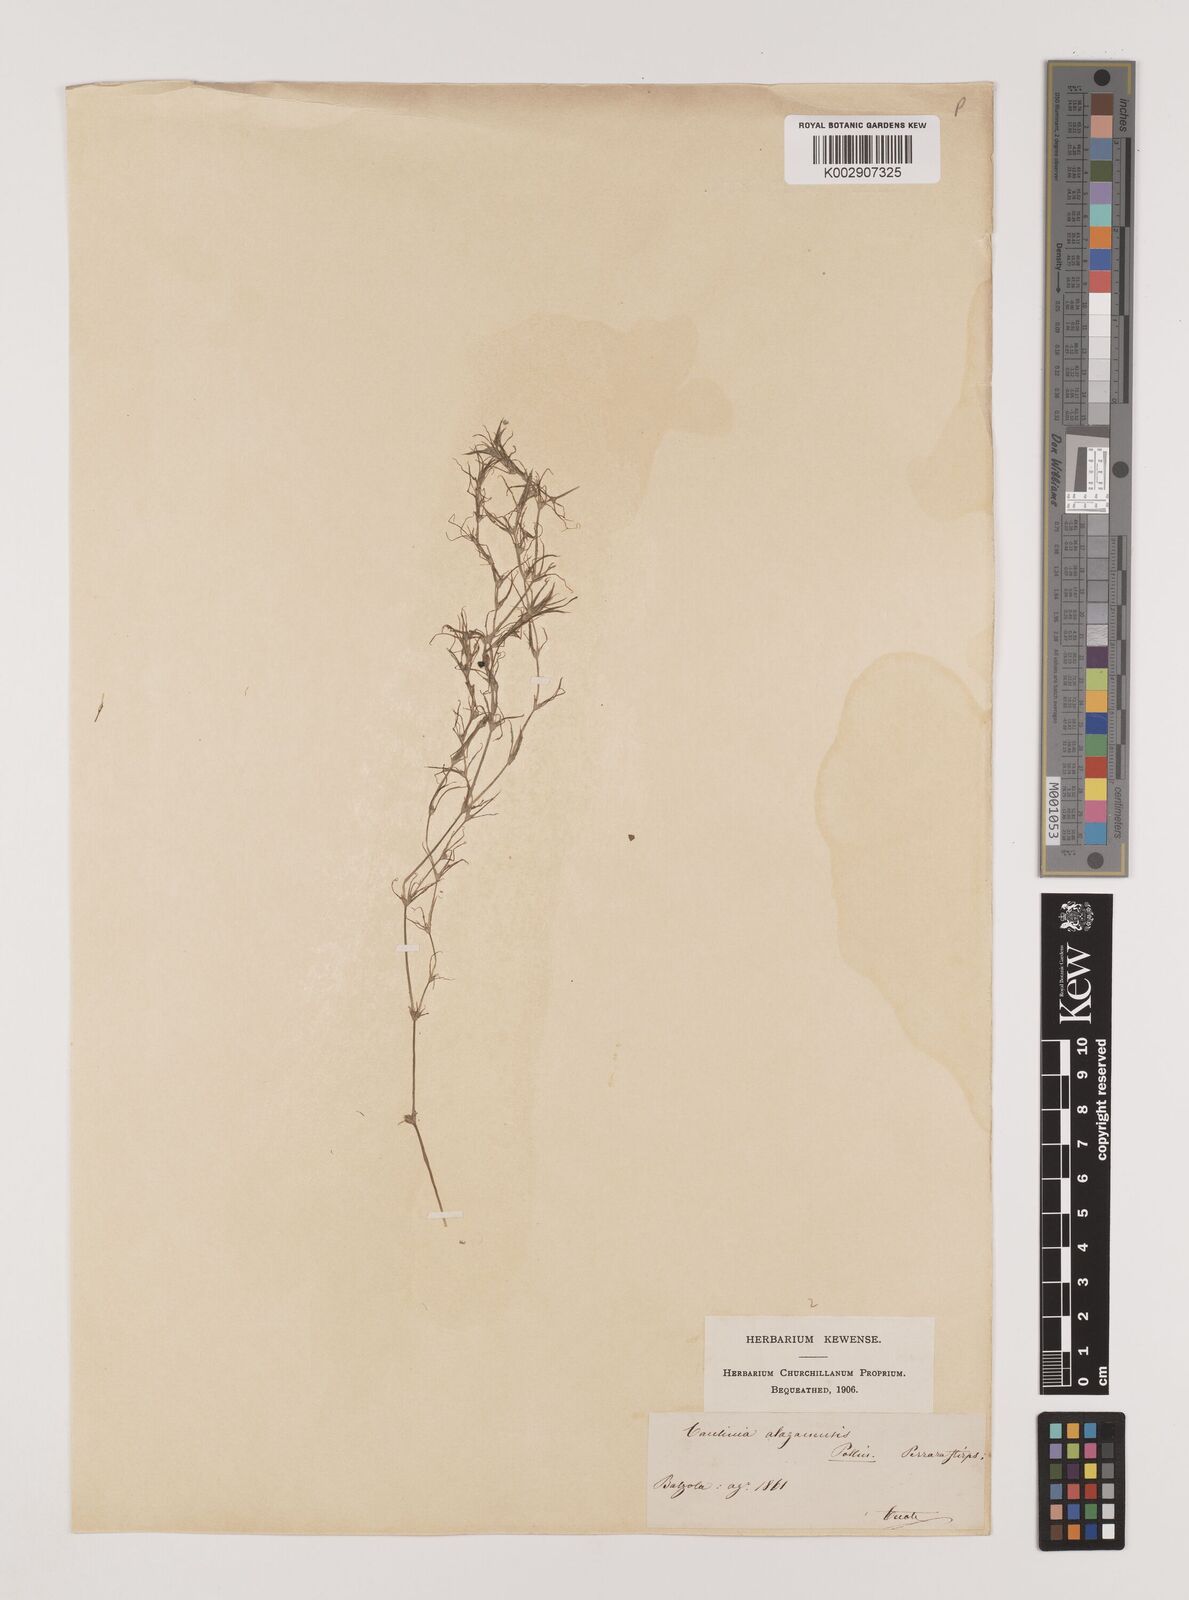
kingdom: Plantae
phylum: Tracheophyta
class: Liliopsida
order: Alismatales
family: Hydrocharitaceae
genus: Najas
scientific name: Najas graminea
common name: Ricefield waternymph
